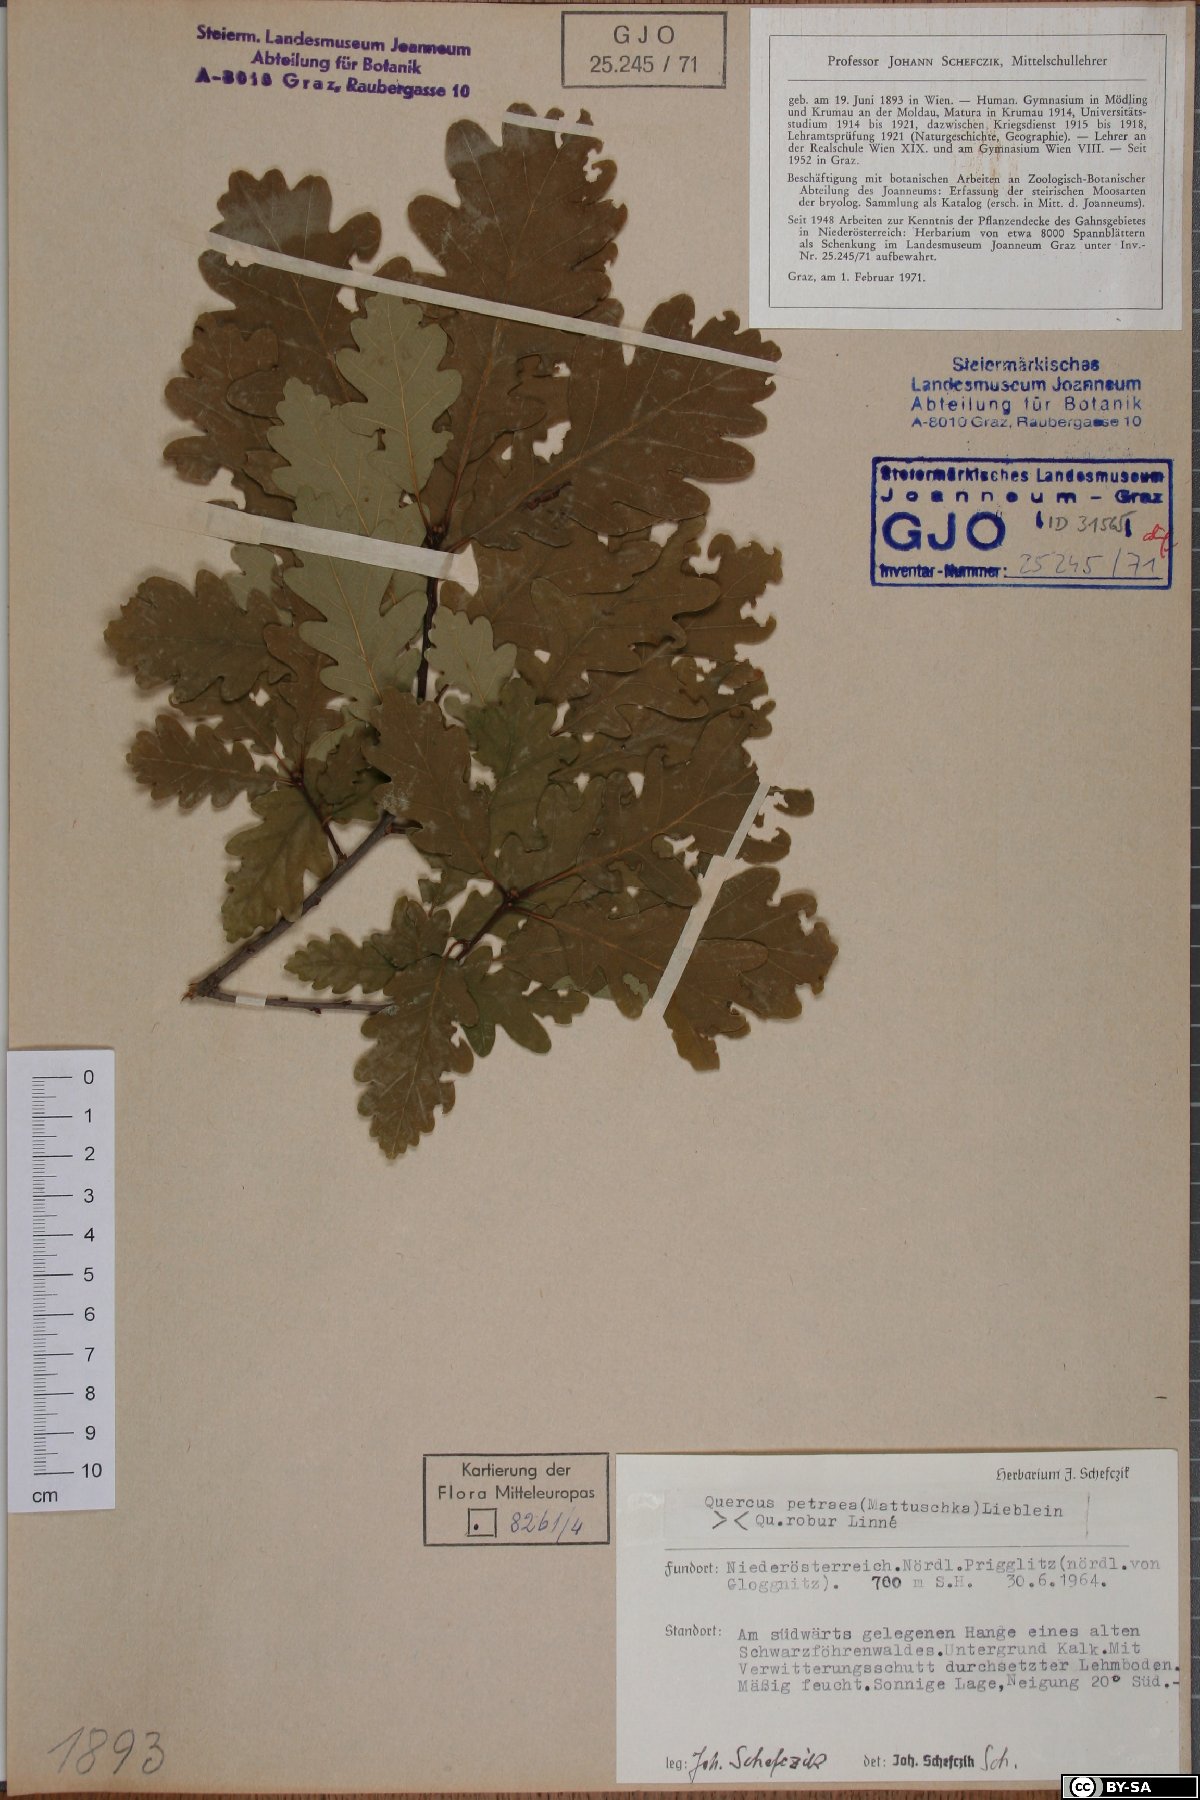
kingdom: Plantae
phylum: Tracheophyta
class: Magnoliopsida
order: Fagales
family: Fagaceae
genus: Quercus
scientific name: Quercus petraea
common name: Sessile oak
